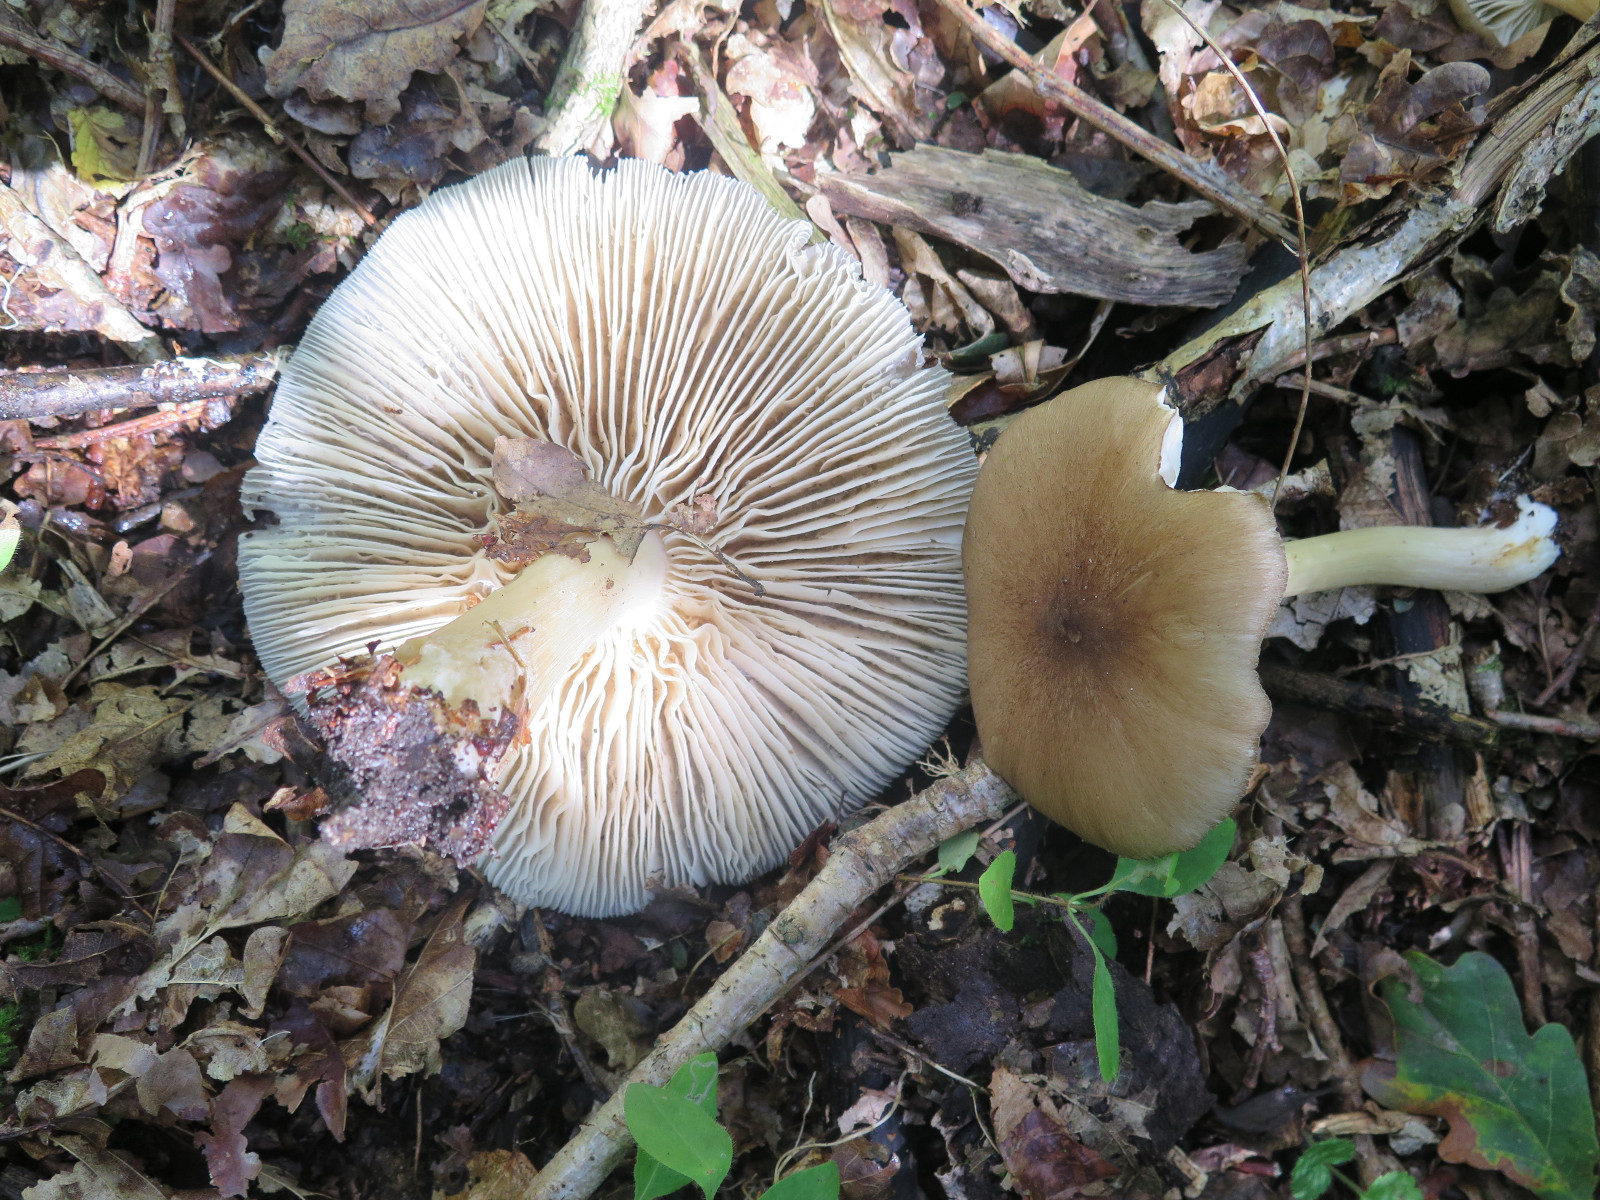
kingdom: Fungi
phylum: Basidiomycota
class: Agaricomycetes
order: Agaricales
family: Tricholomataceae
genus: Megacollybia
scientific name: Megacollybia platyphylla
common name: bredbladet væbnerhat
